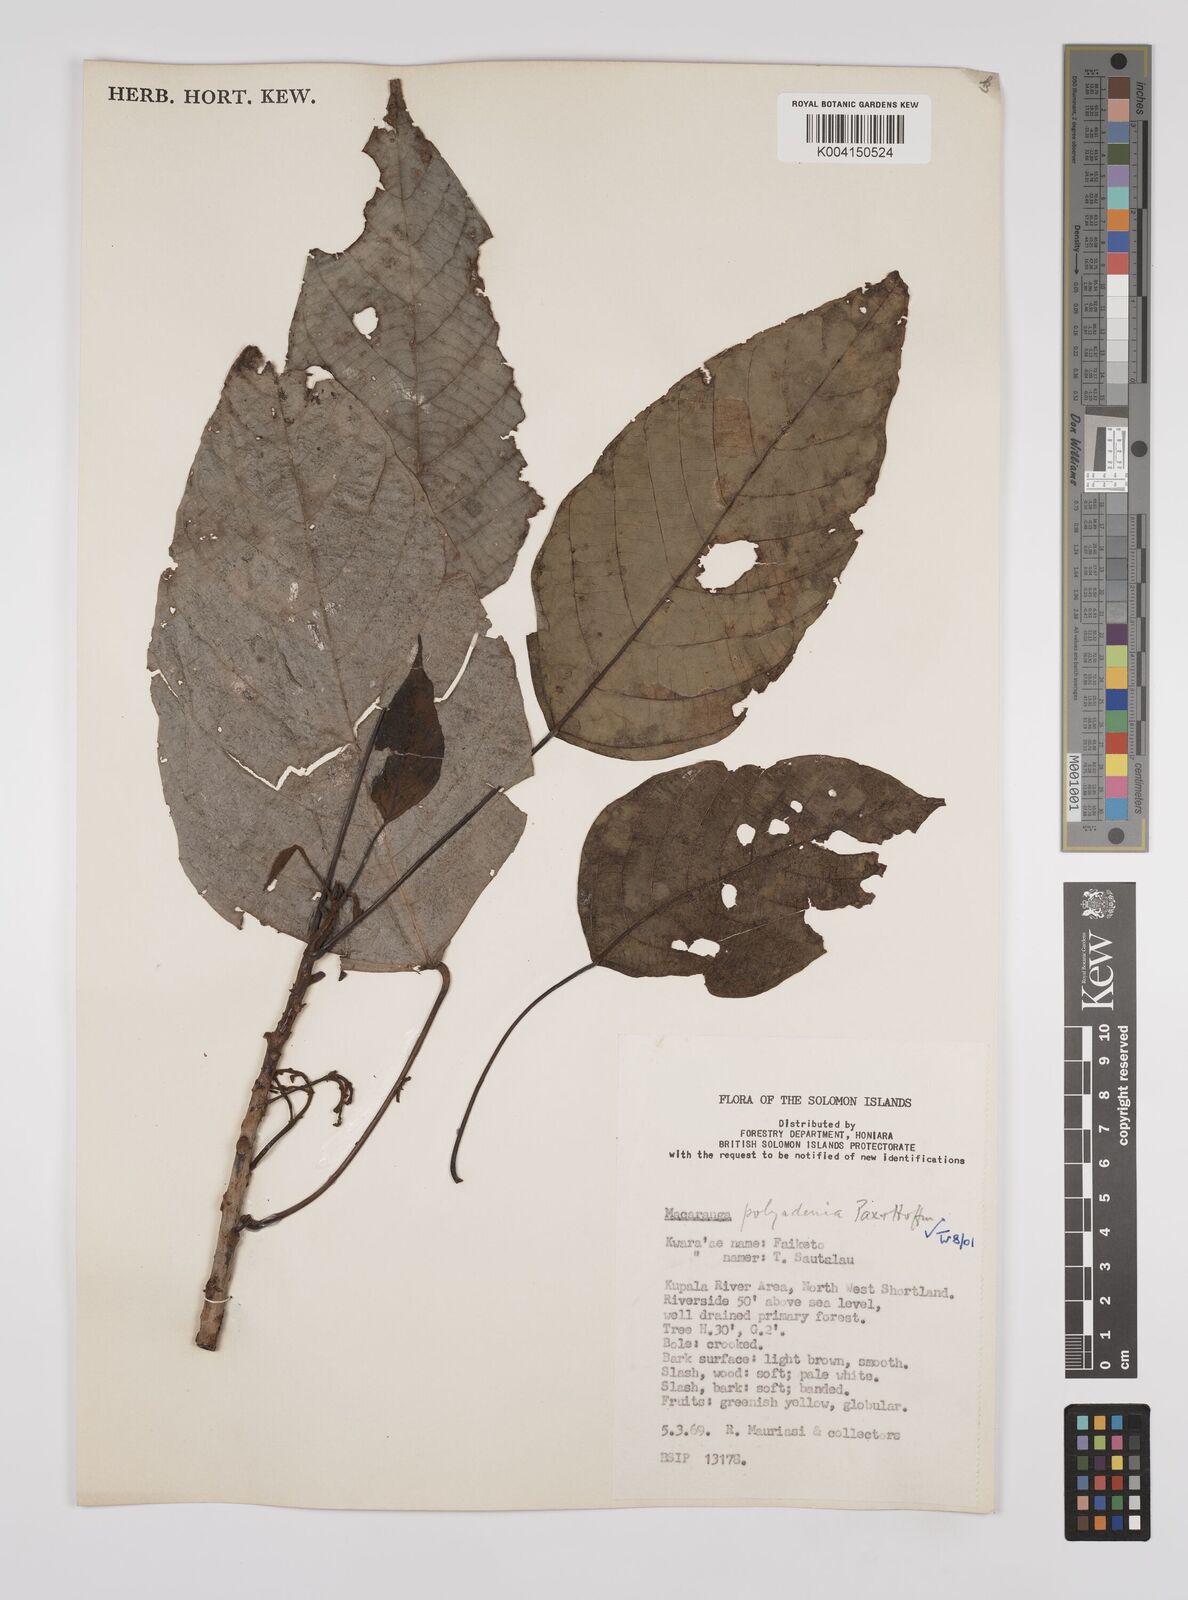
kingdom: Plantae
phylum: Tracheophyta
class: Magnoliopsida
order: Malpighiales
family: Euphorbiaceae
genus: Macaranga
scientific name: Macaranga polyadenia
